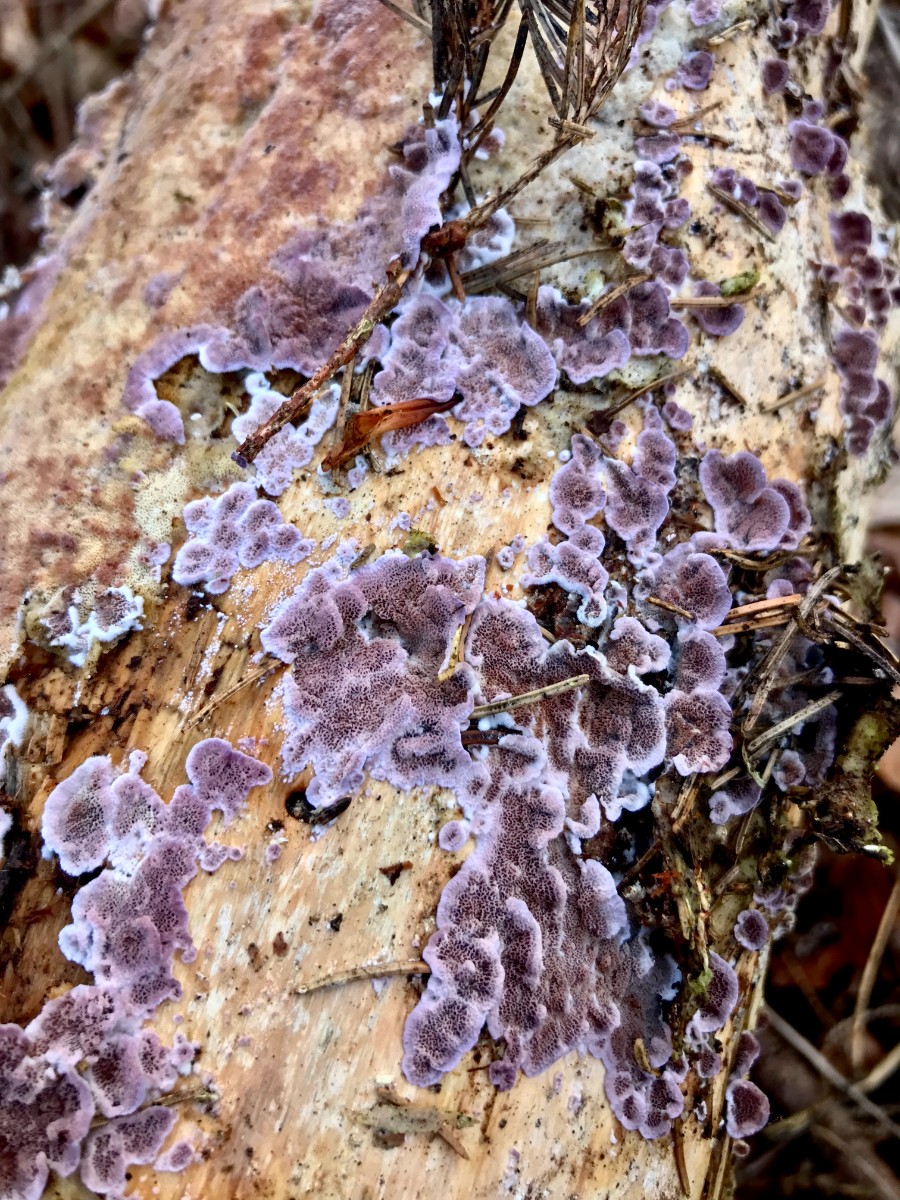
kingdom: Fungi
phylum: Basidiomycota
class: Agaricomycetes
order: Hymenochaetales
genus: Trichaptum
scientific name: Trichaptum abietinum
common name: almindelig violporesvamp
